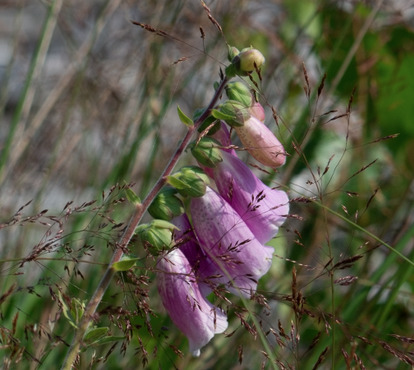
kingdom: Plantae
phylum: Tracheophyta
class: Magnoliopsida
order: Lamiales
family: Plantaginaceae
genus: Digitalis
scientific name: Digitalis purpurea
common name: Almindelig fingerbøl
